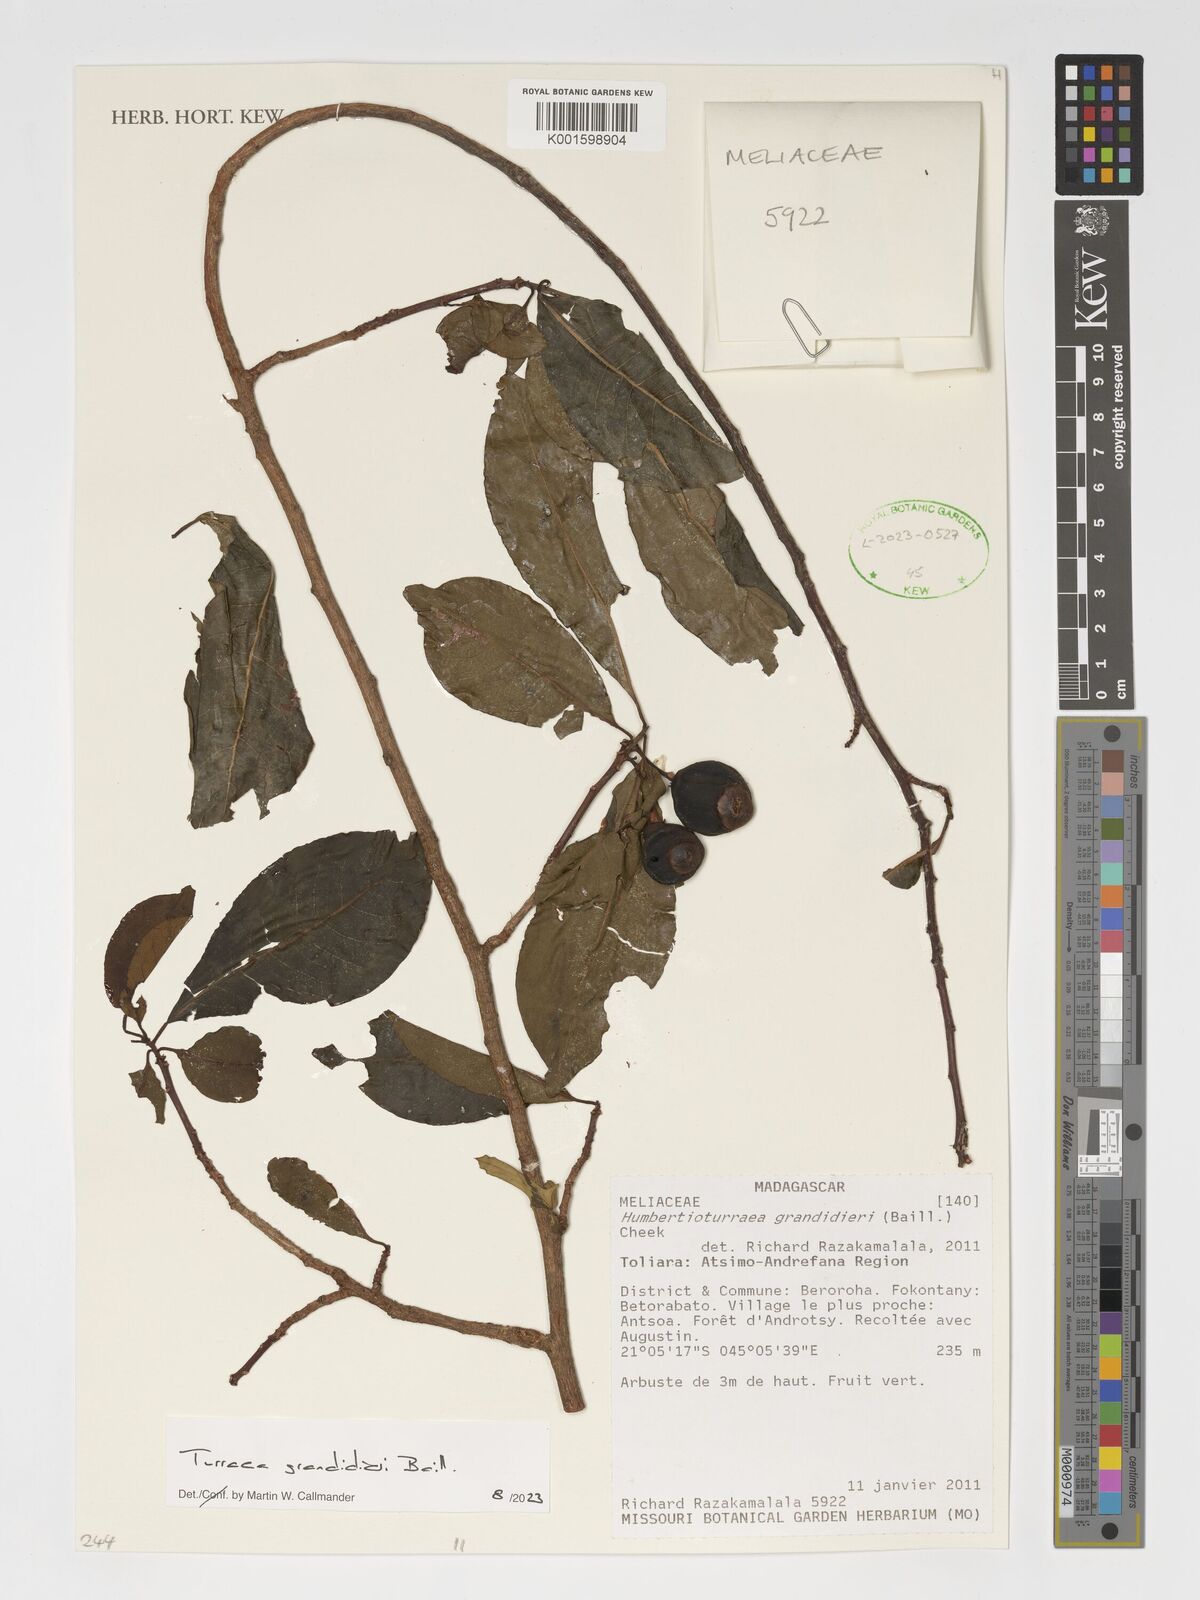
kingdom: Plantae
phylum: Tracheophyta
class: Magnoliopsida
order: Sapindales
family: Meliaceae
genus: Humbertioturraea
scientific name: Humbertioturraea grandidieri
